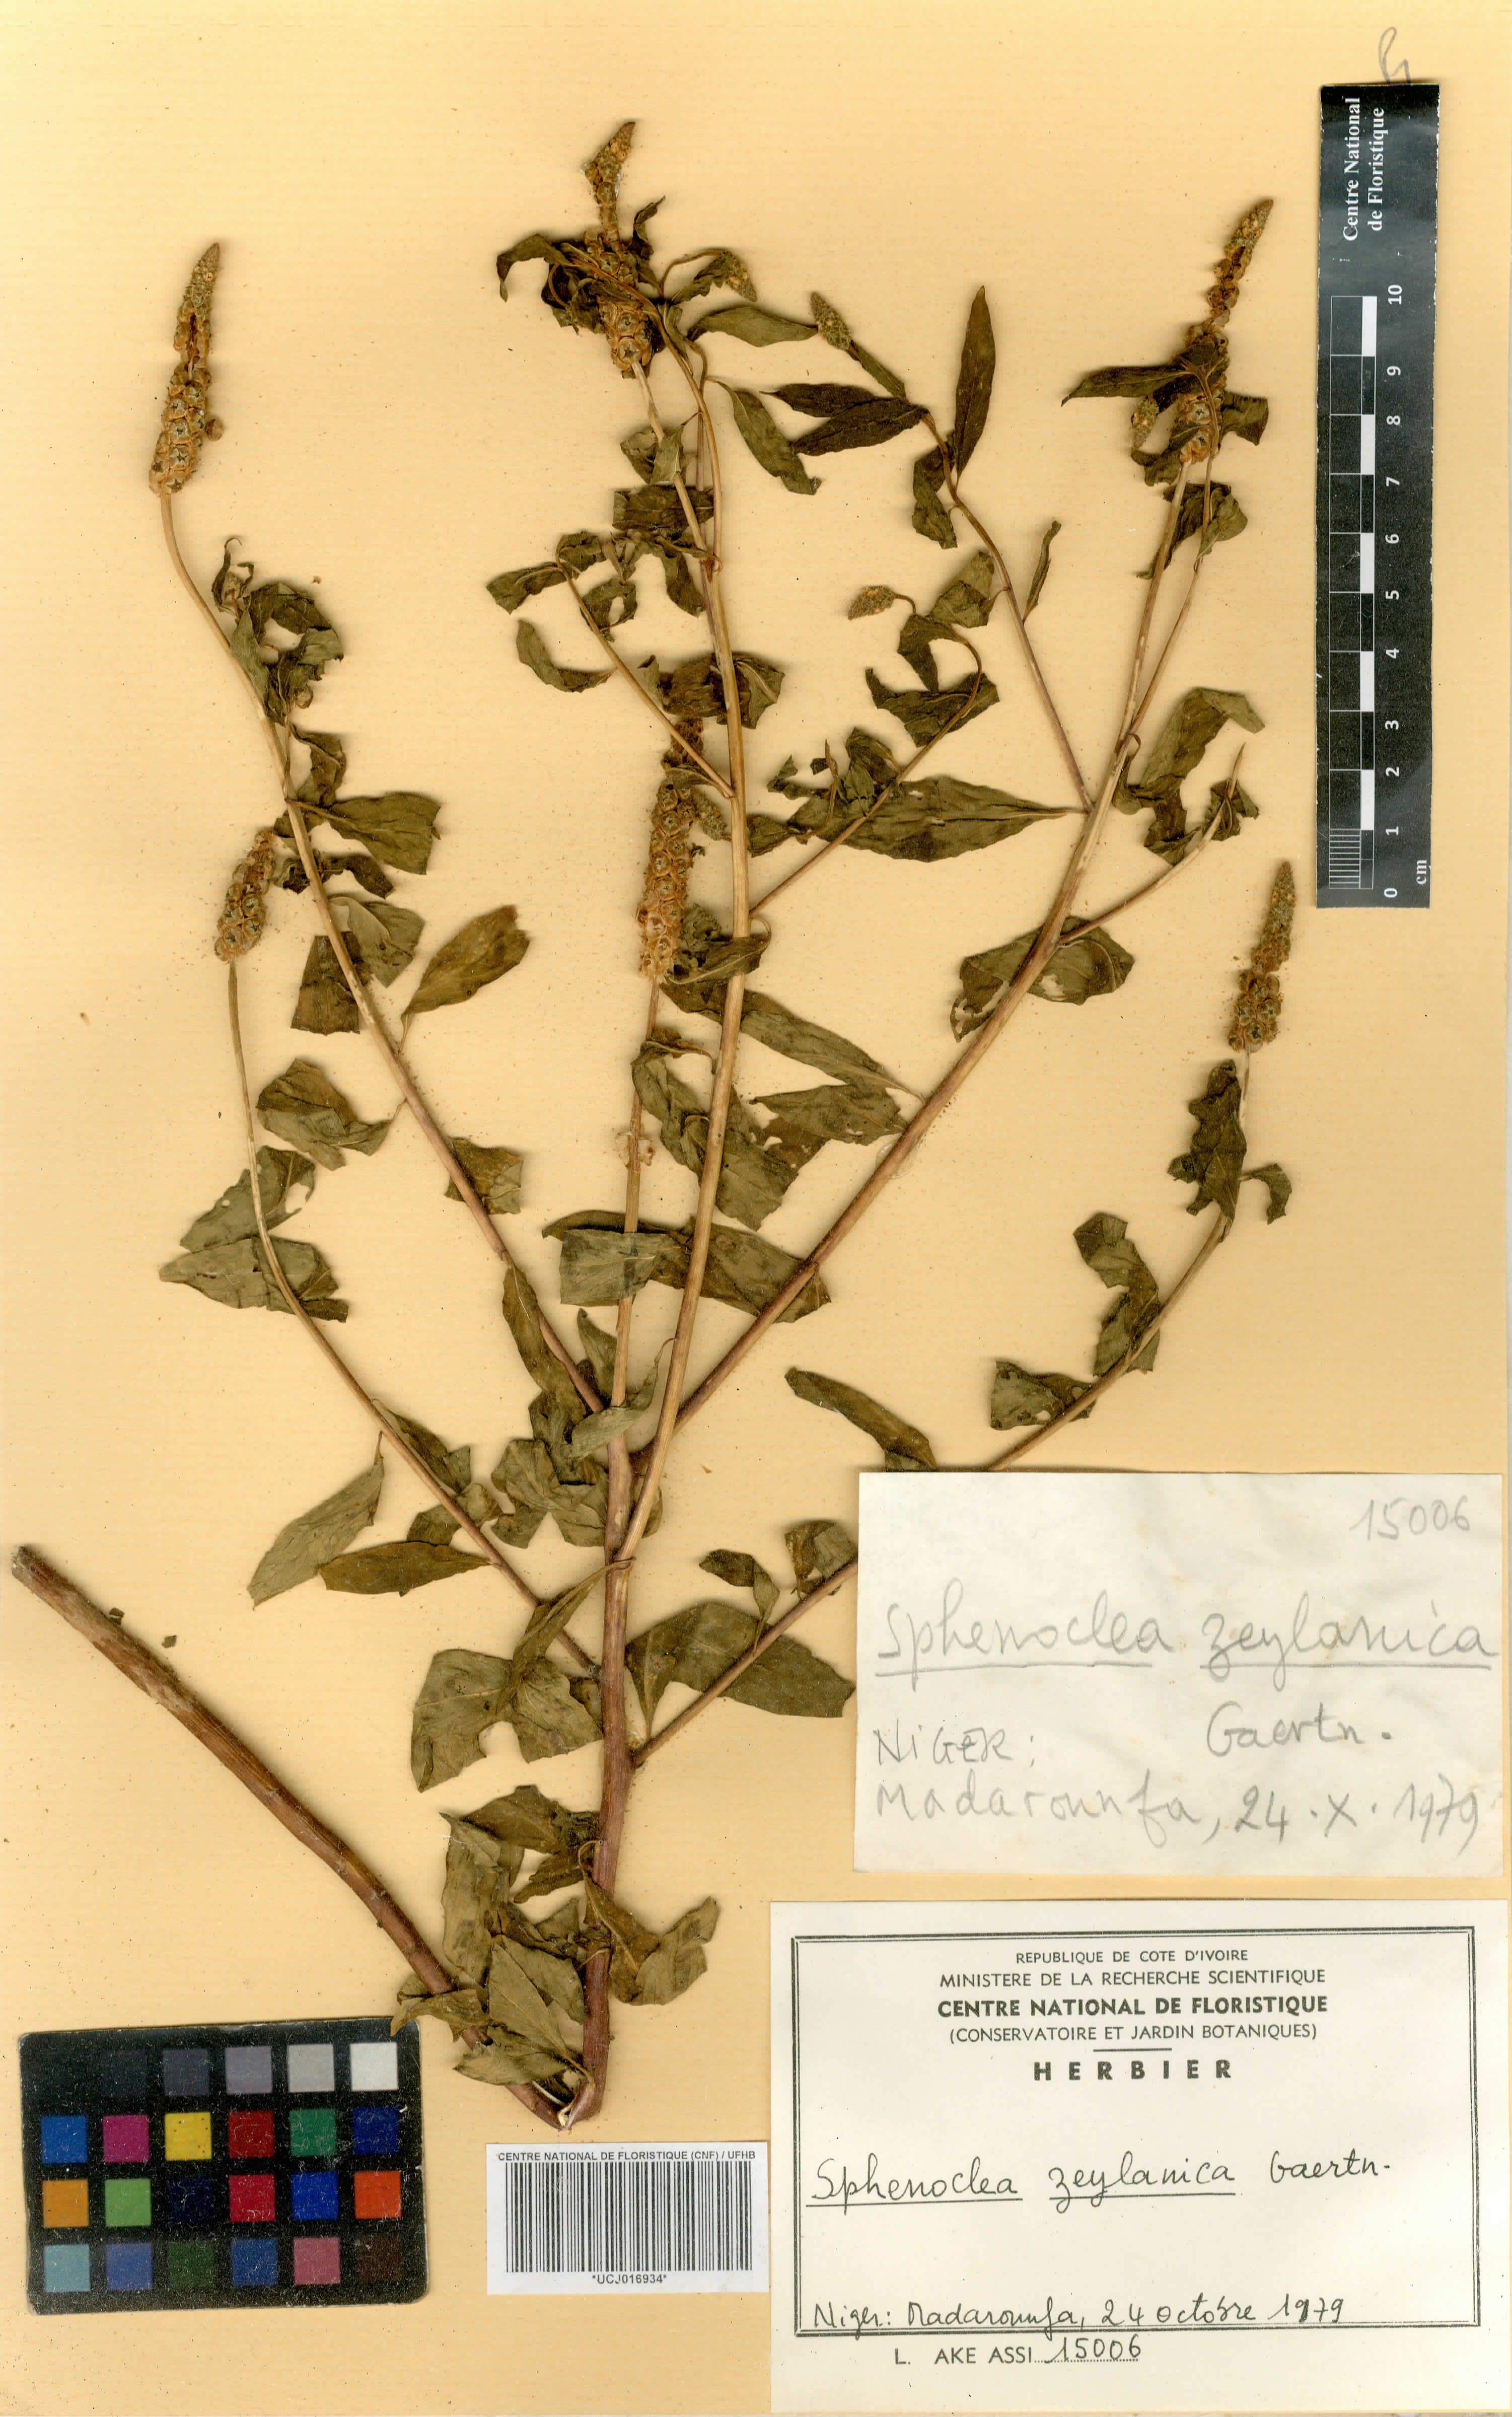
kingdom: Plantae
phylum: Tracheophyta
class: Magnoliopsida
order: Solanales
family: Sphenocleaceae
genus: Sphenoclea
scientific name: Sphenoclea zeylanica
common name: Chickenspike
